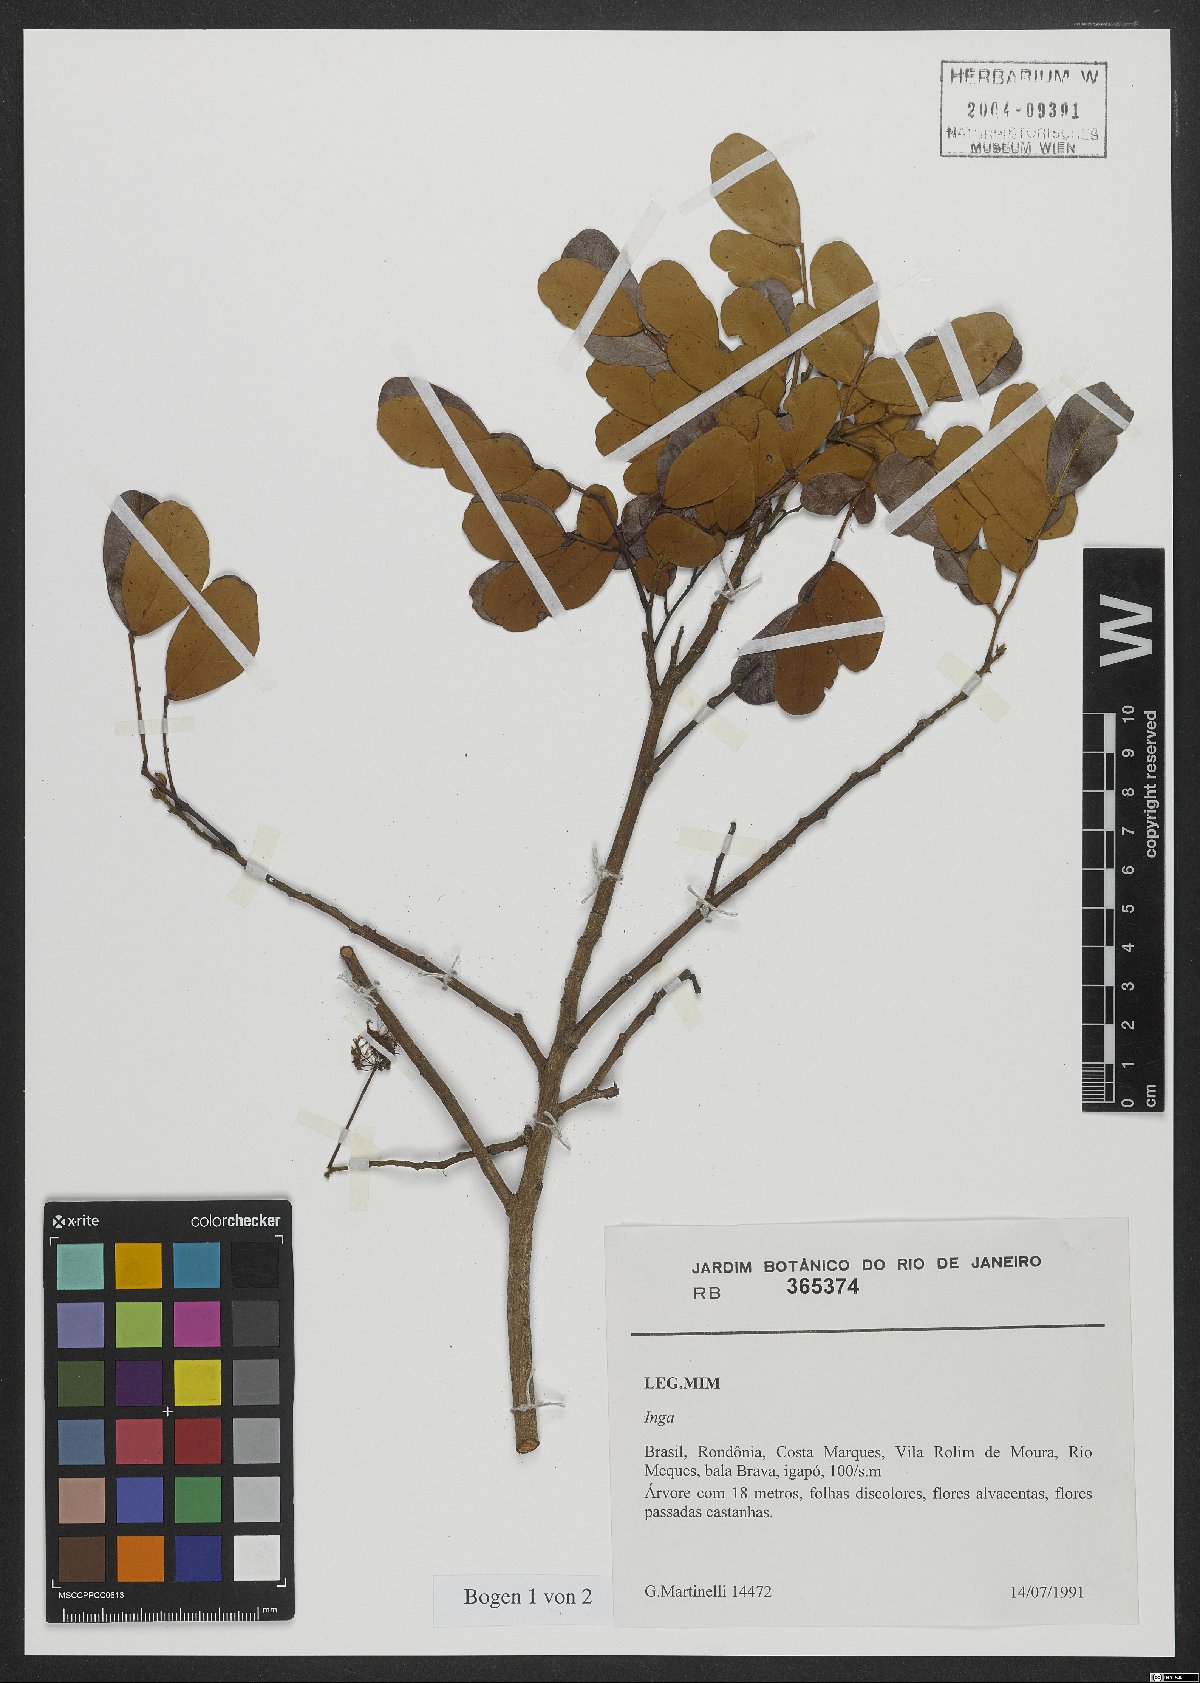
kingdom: Plantae
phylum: Tracheophyta
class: Magnoliopsida
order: Fabales
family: Fabaceae
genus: Inga
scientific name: Inga
